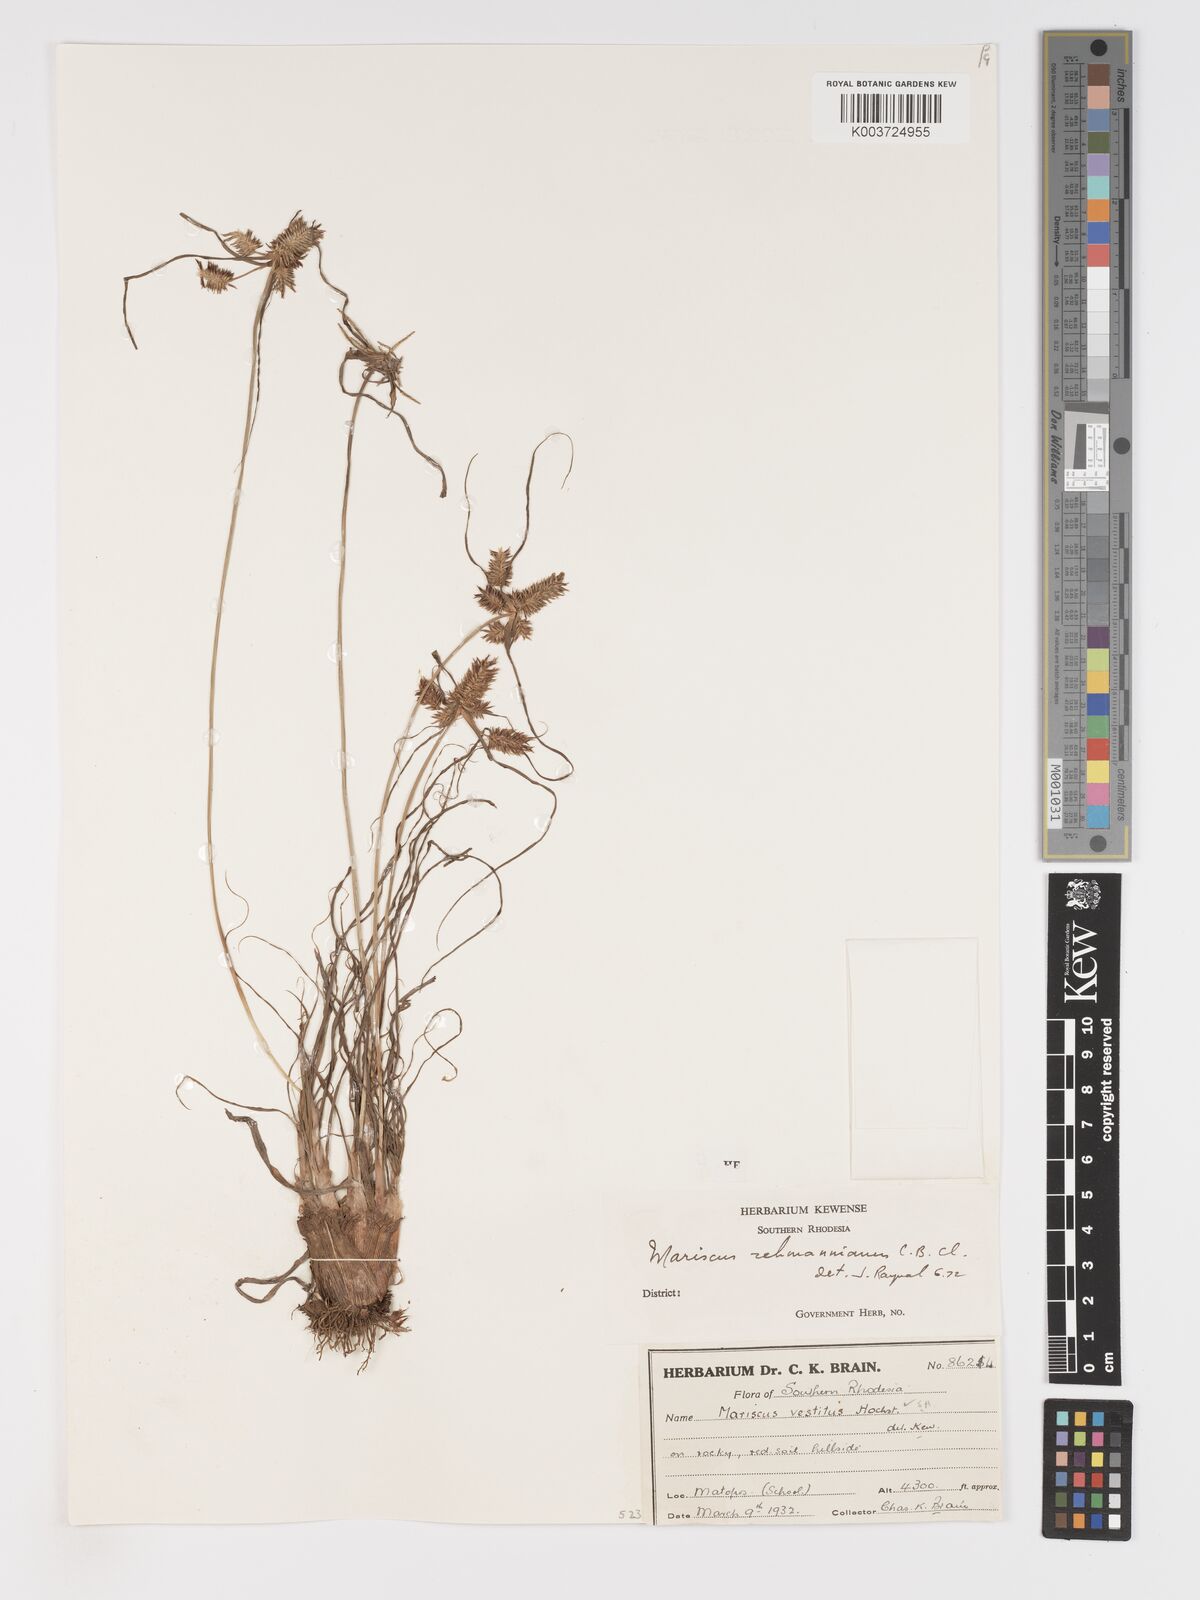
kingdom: Plantae
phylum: Tracheophyta
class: Liliopsida
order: Poales
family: Cyperaceae
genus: Cyperus
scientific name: Cyperus indecorus
